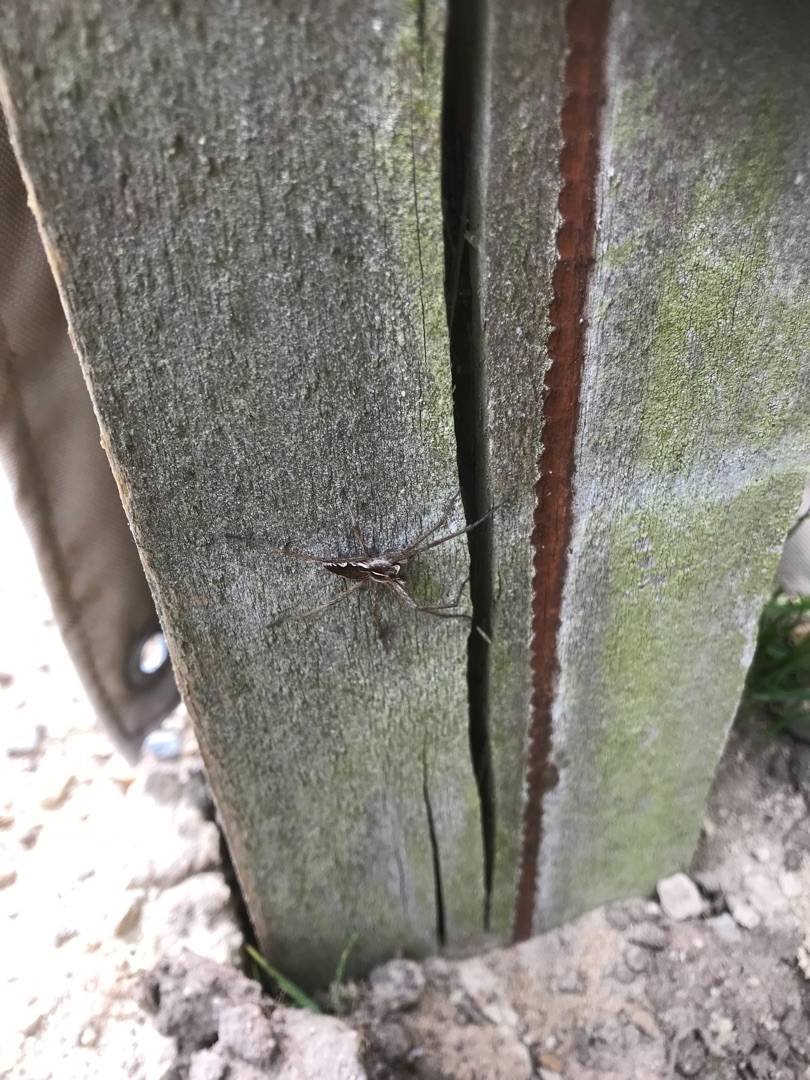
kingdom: Animalia
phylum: Arthropoda
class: Arachnida
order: Araneae
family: Pisauridae
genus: Pisaura
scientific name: Pisaura mirabilis
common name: Almindelig rovedderkop
